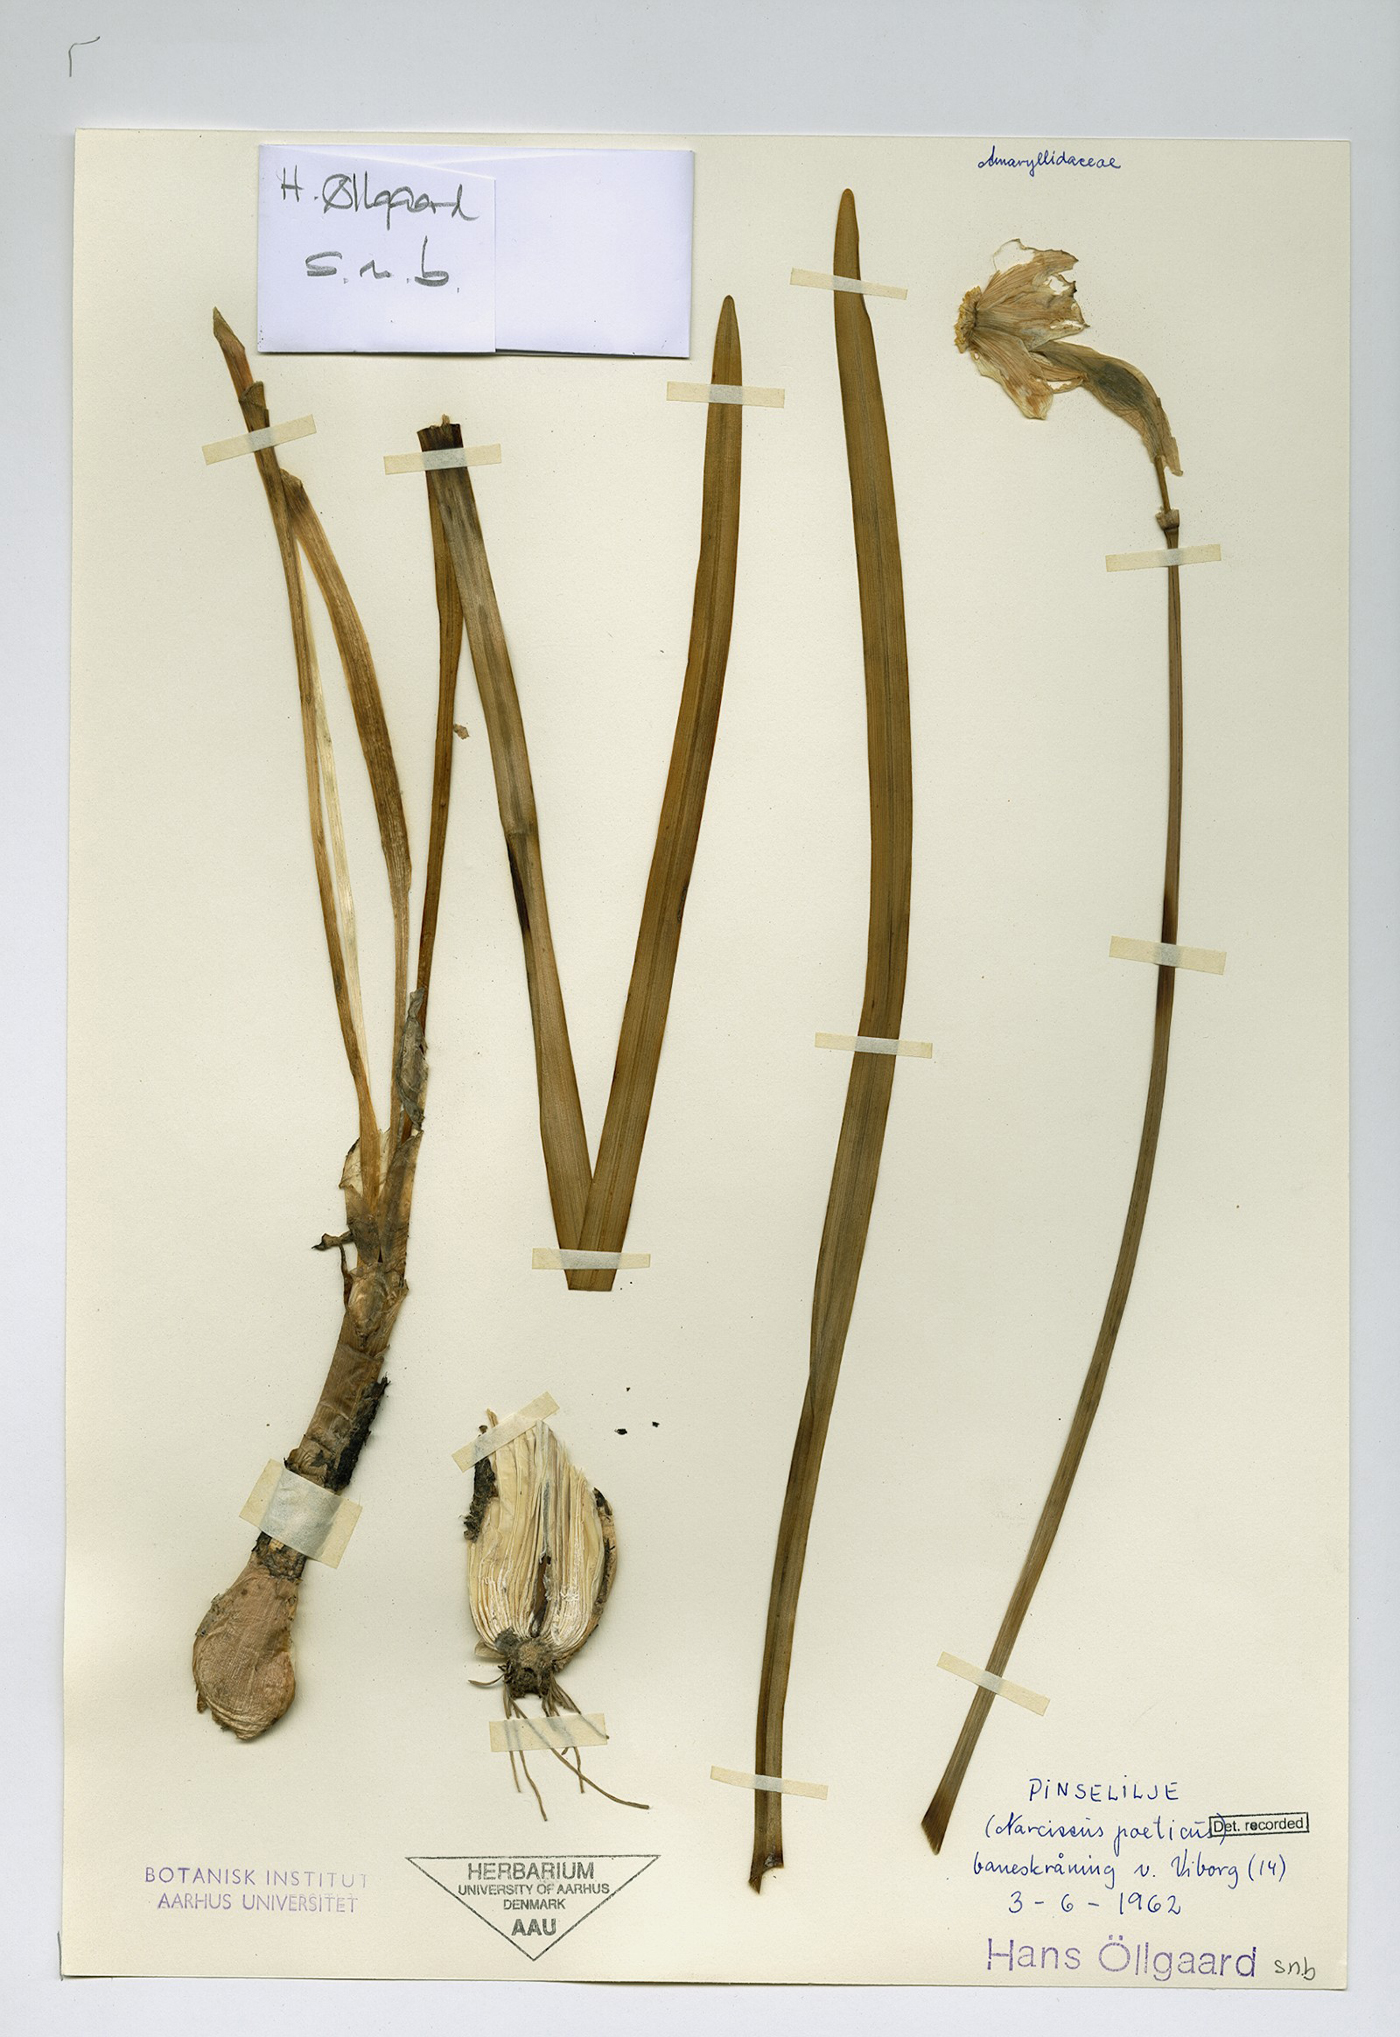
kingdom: Plantae
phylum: Tracheophyta
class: Liliopsida
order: Asparagales
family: Amaryllidaceae
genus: Narcissus
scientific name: Narcissus poeticus
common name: Pheasant's-eye daffodil
